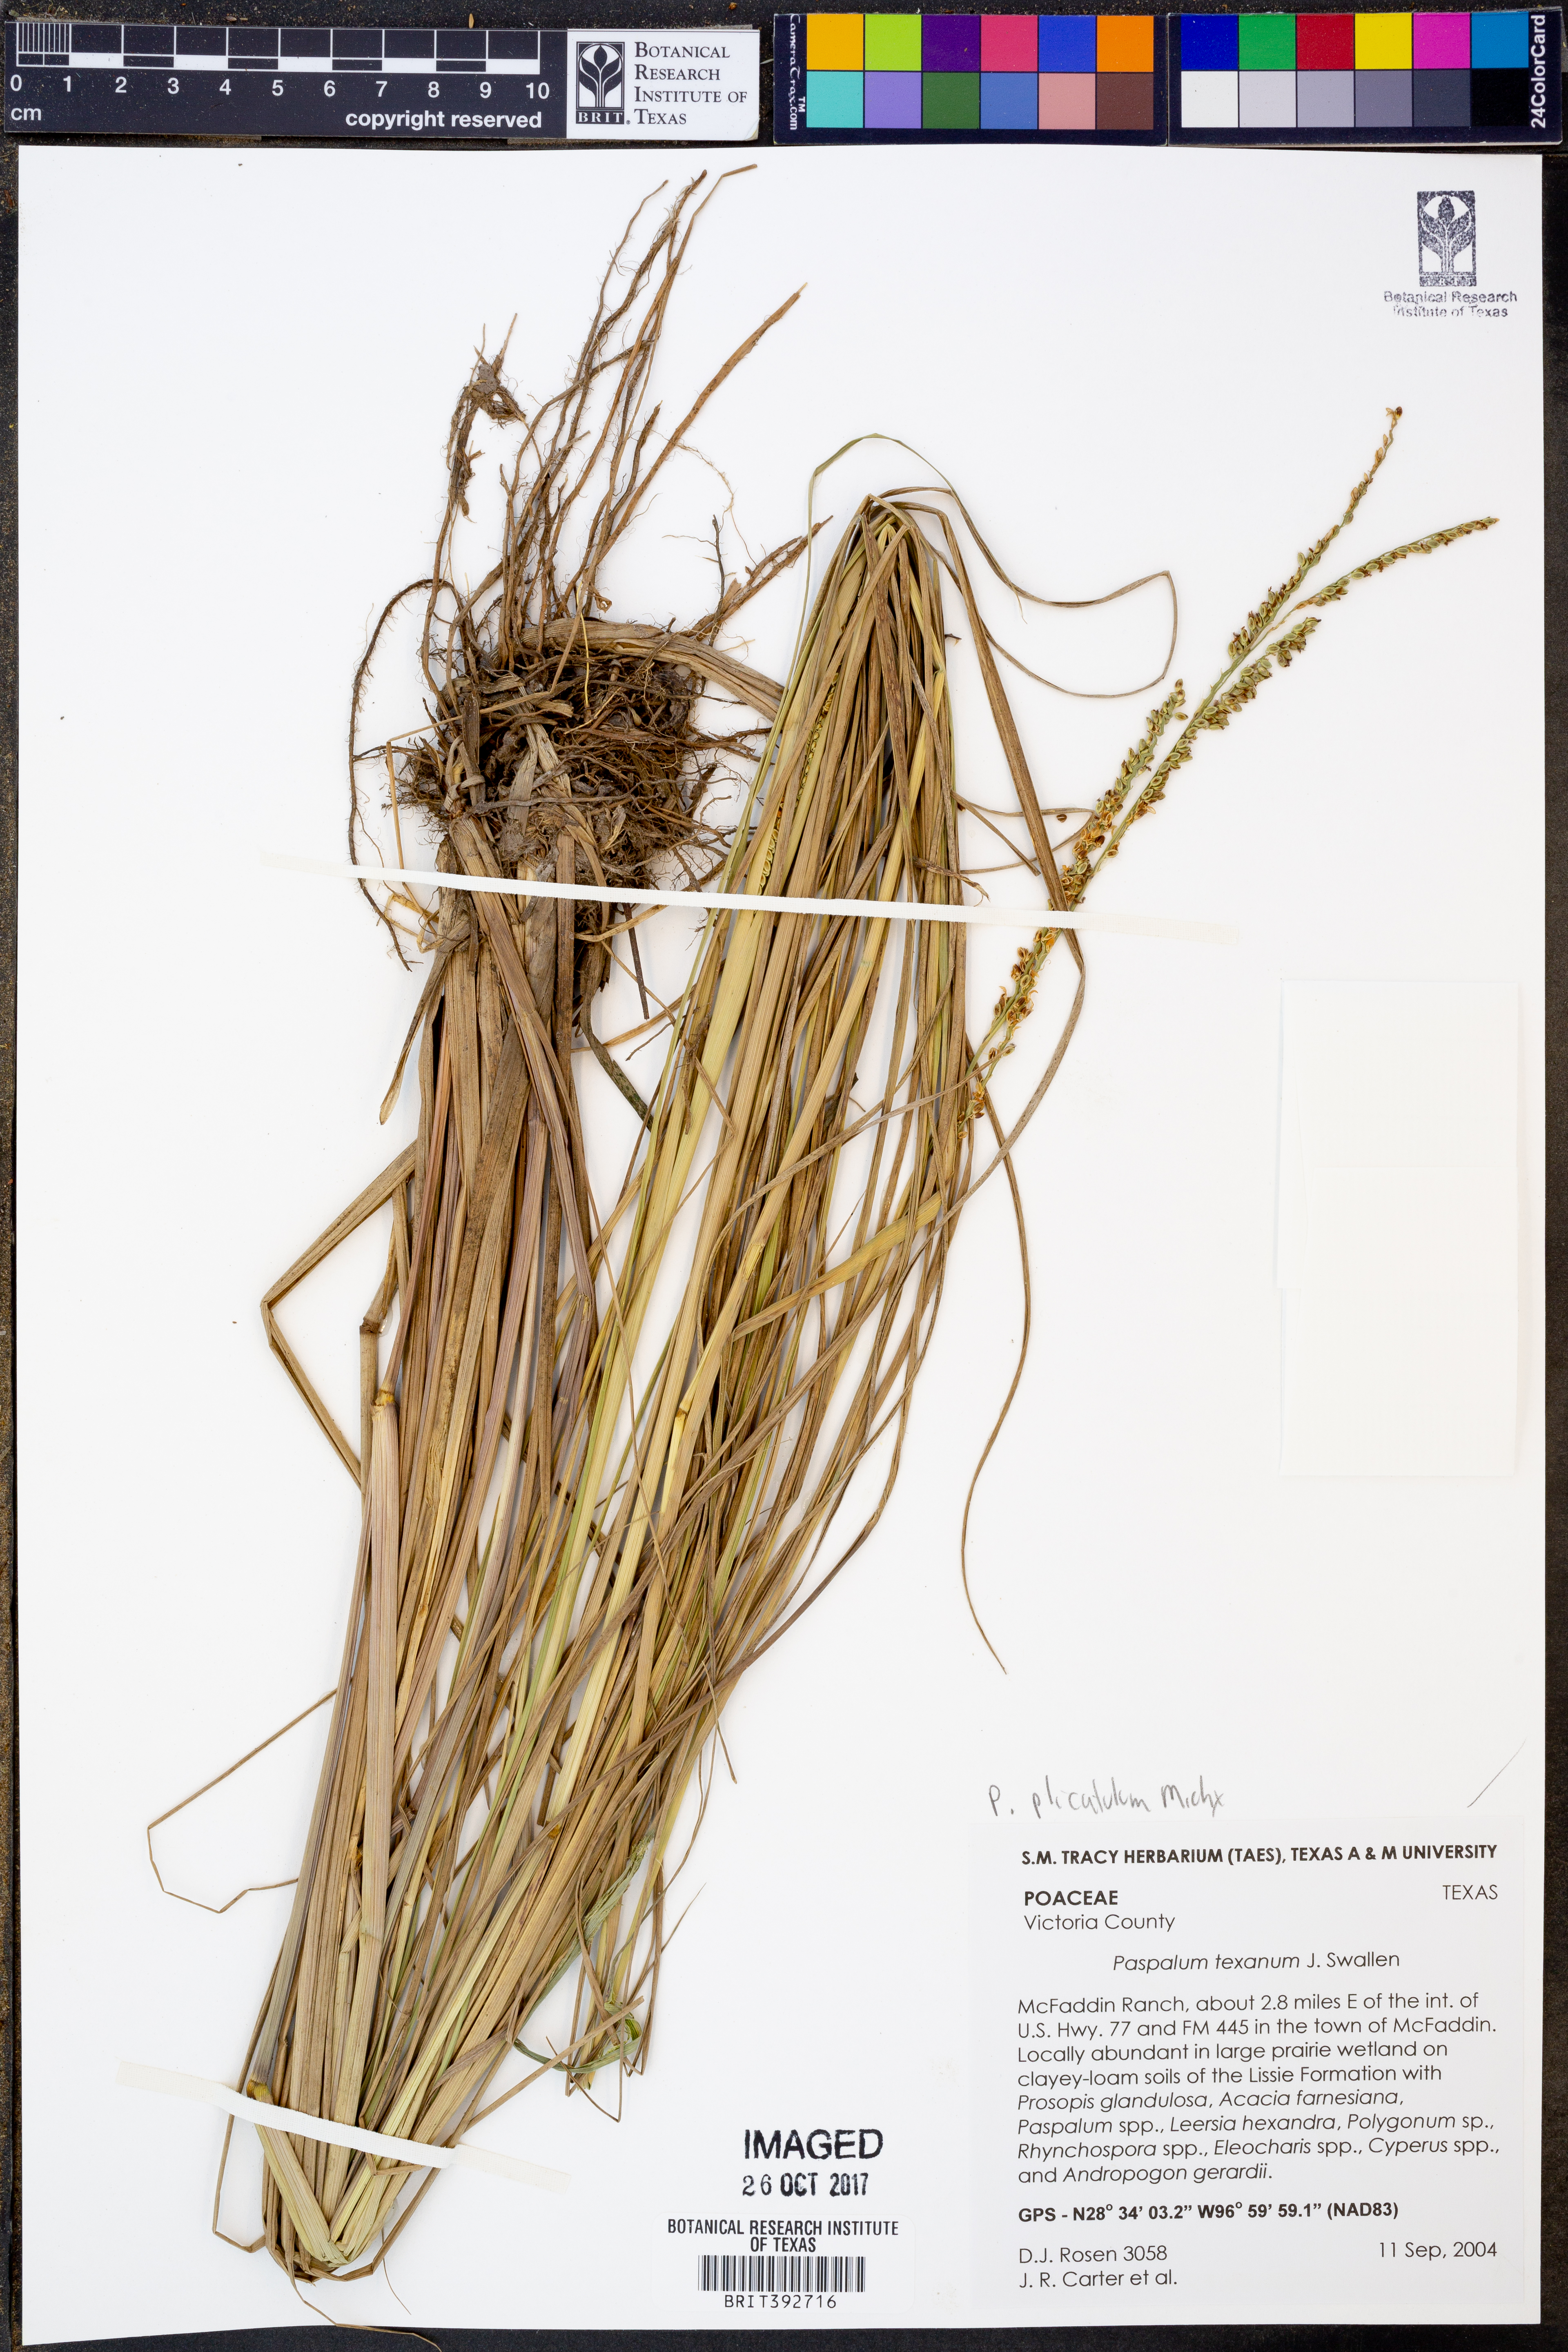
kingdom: Plantae
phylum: Tracheophyta
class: Liliopsida
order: Poales
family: Poaceae
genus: Paspalum
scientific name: Paspalum plicatulum
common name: Top paspalum
